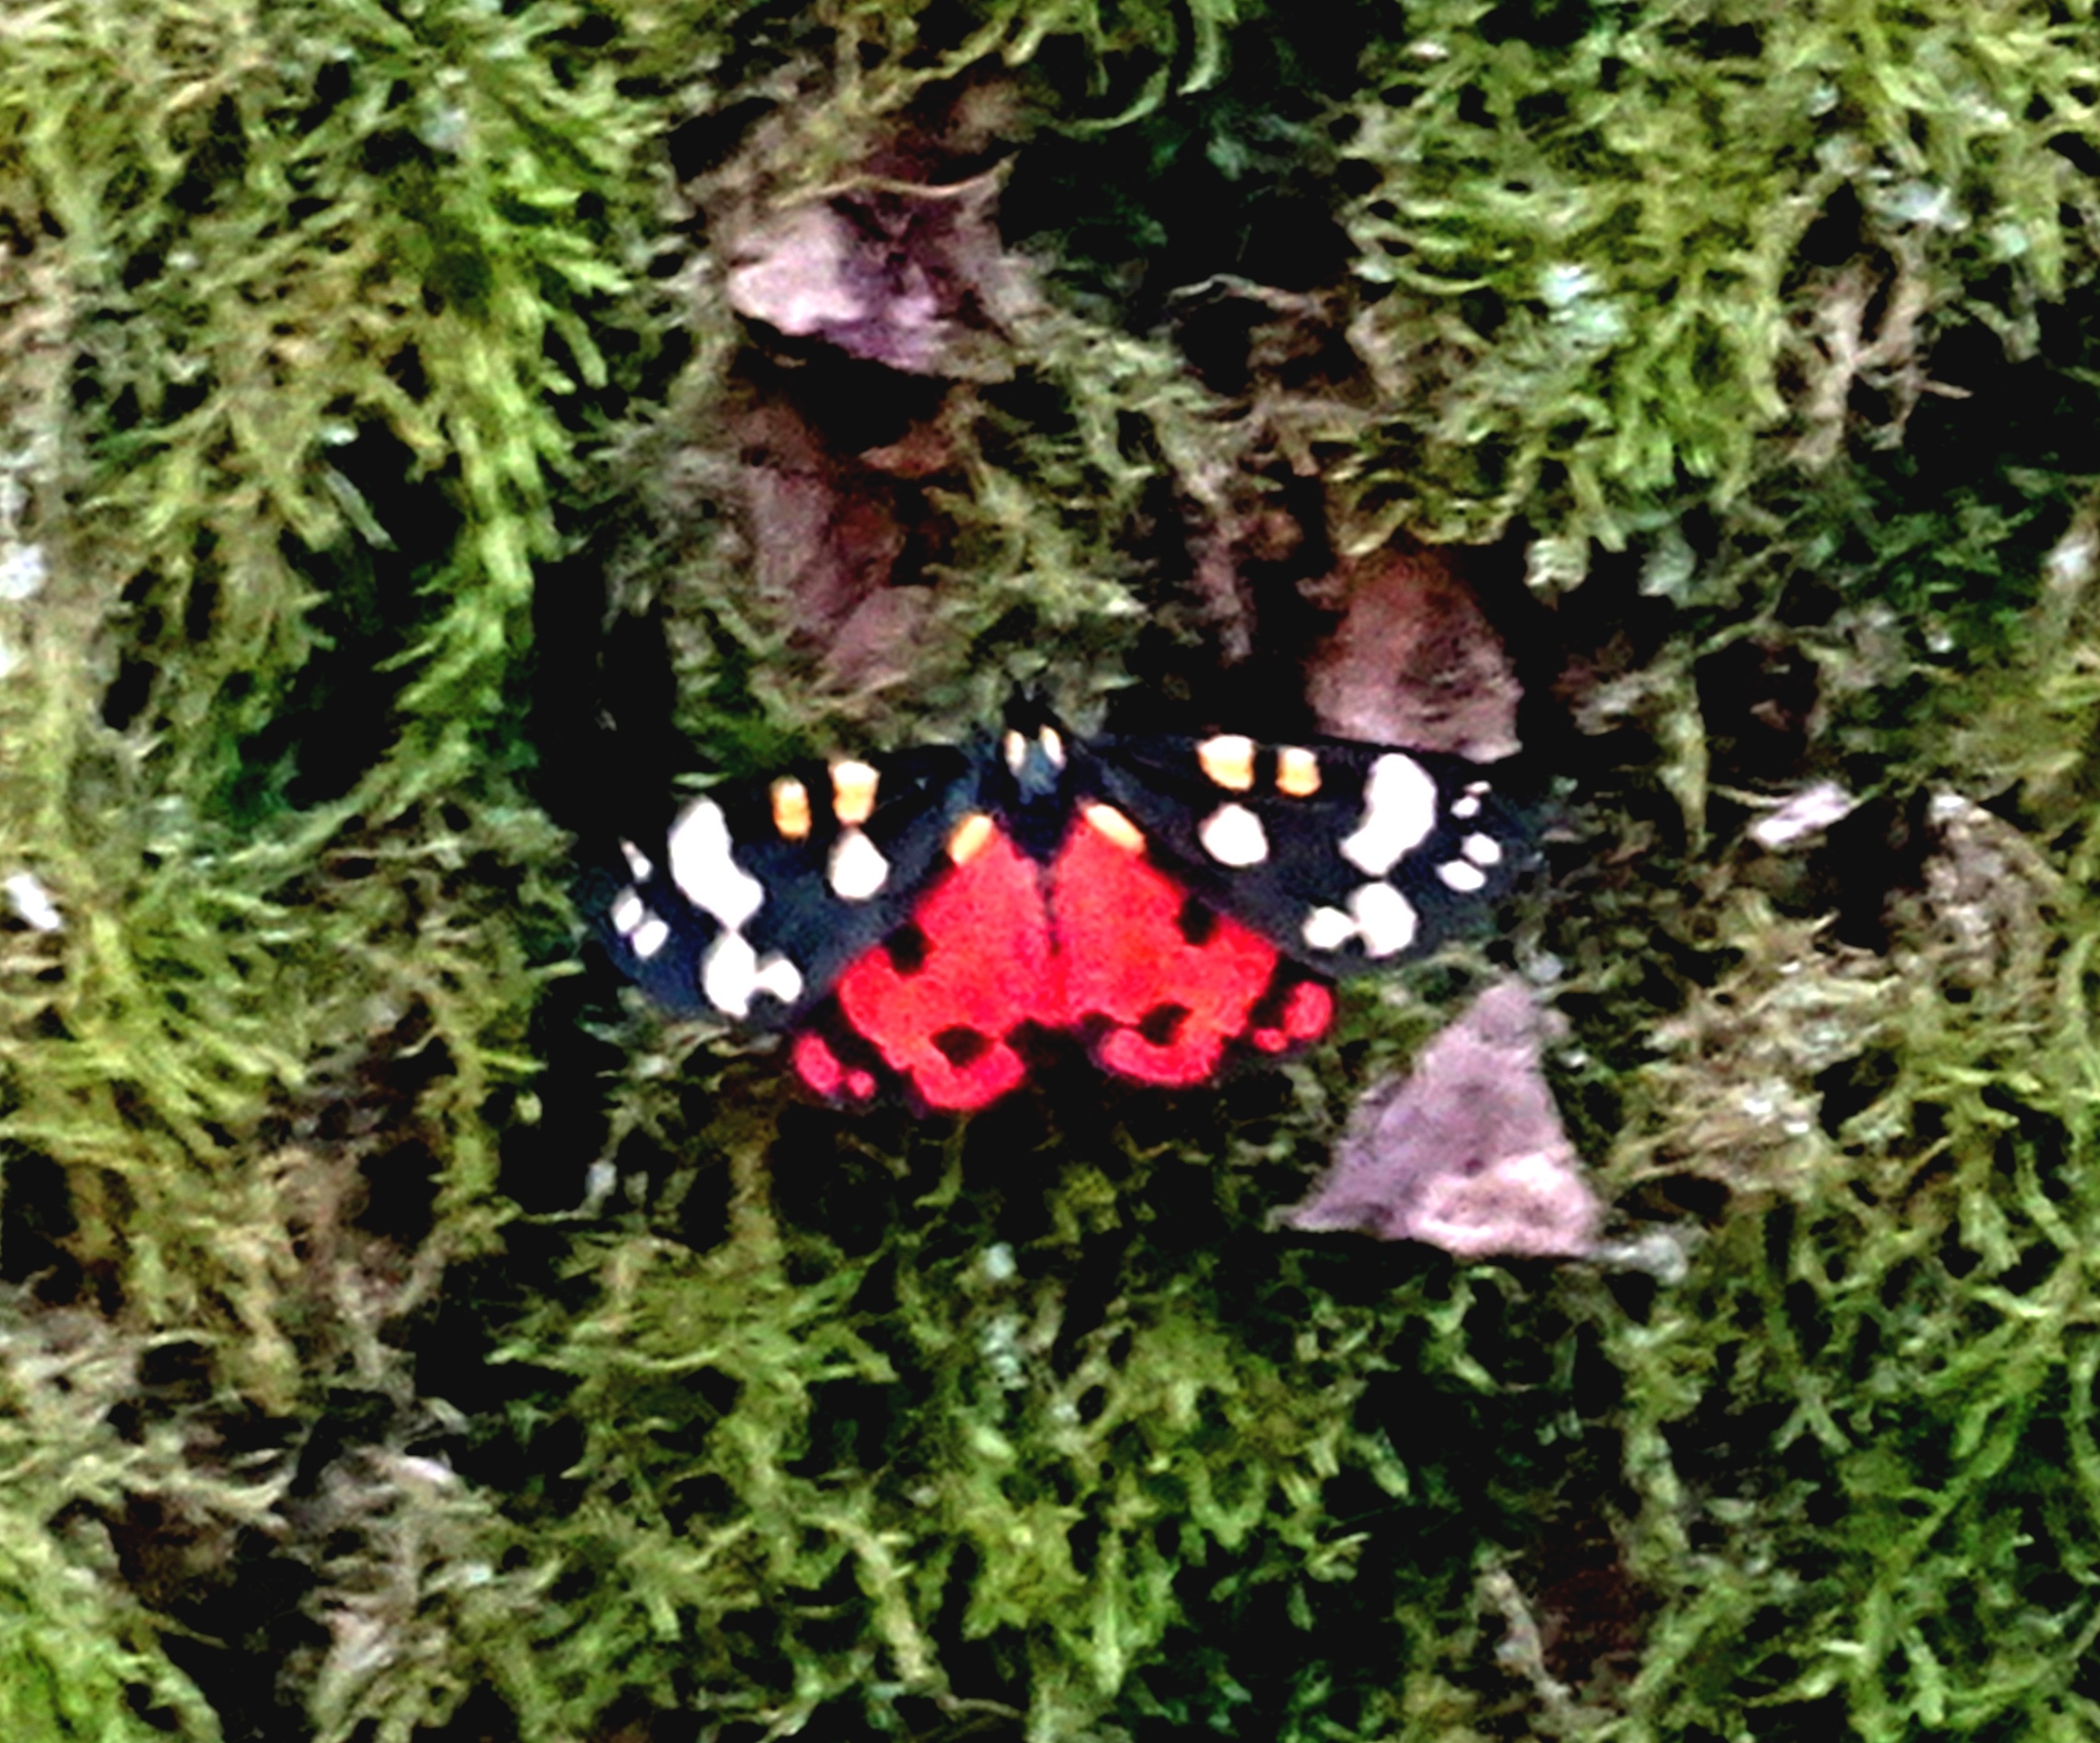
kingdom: Animalia
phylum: Arthropoda
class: Insecta
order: Lepidoptera
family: Erebidae
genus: Callimorpha
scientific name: Callimorpha dominula
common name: Jomfrubjørn
